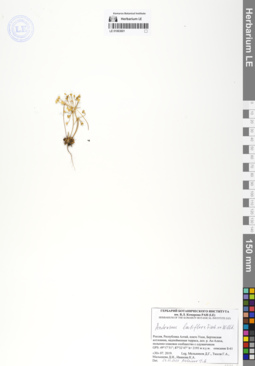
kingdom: Plantae
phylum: Tracheophyta
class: Magnoliopsida
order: Ericales
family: Primulaceae
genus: Androsace
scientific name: Androsace lactiflora
